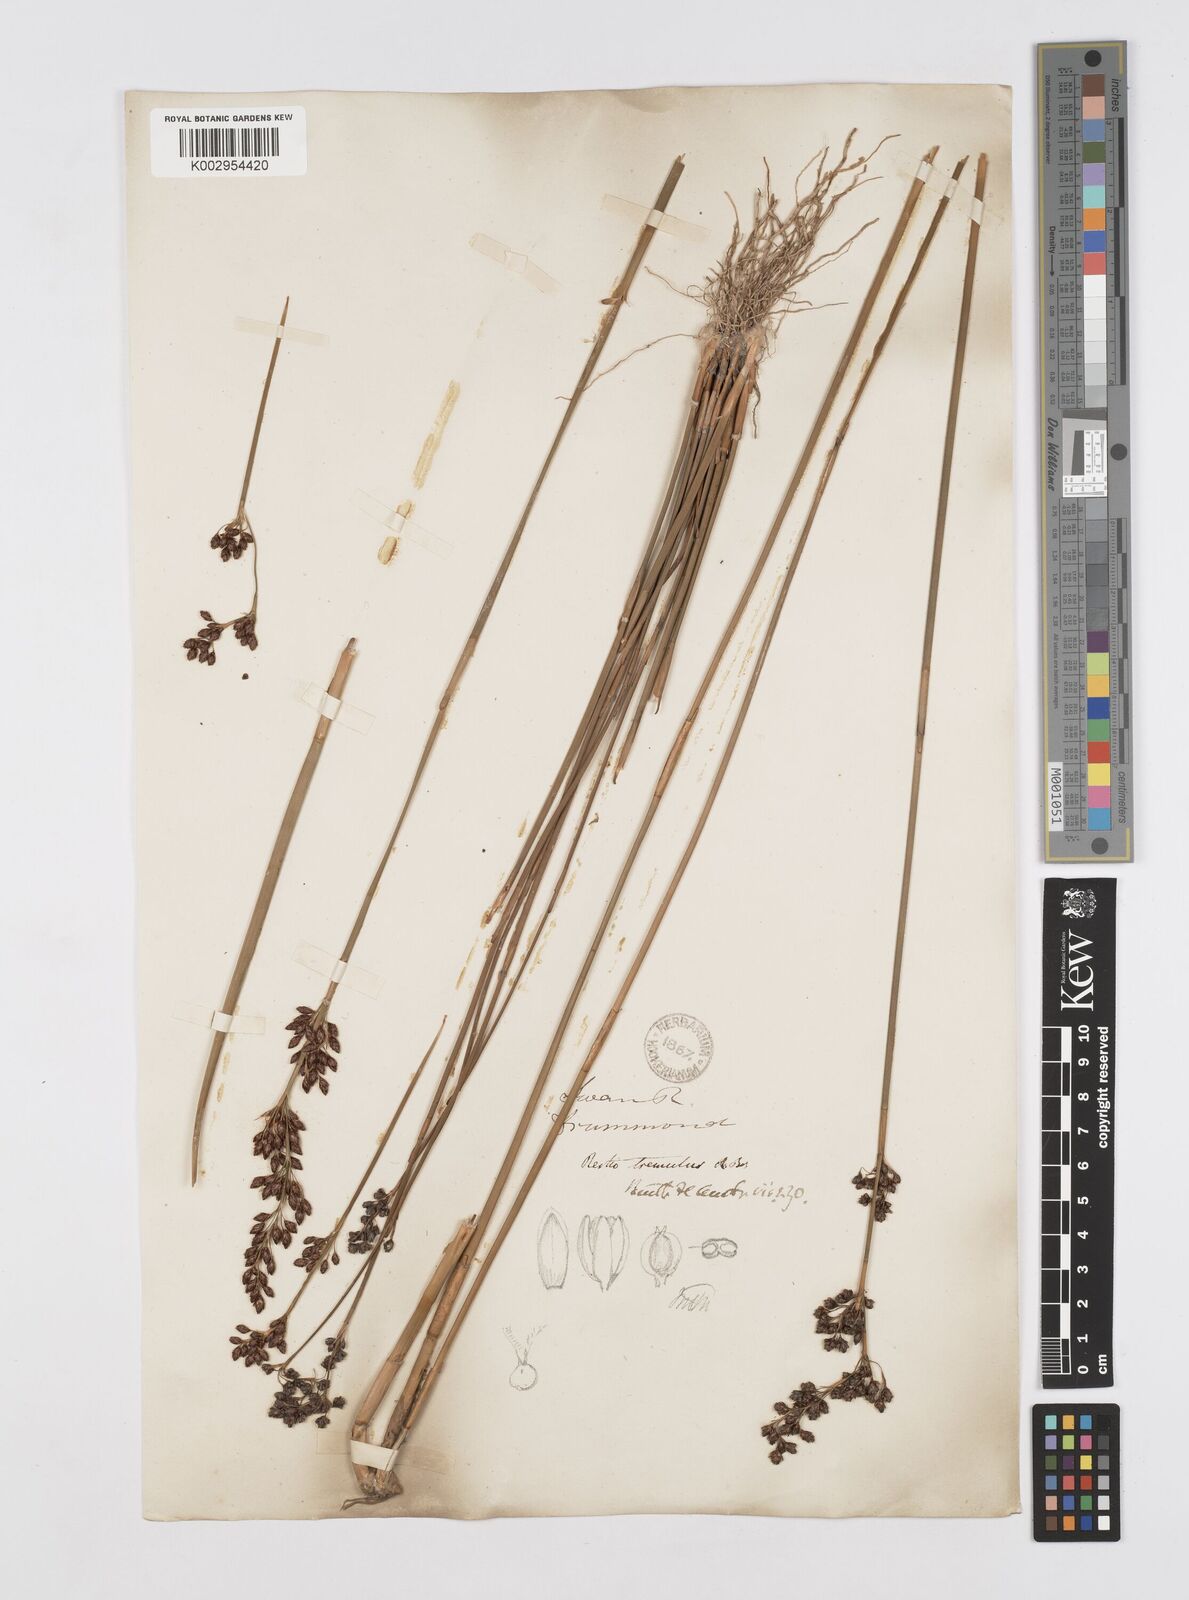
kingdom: Plantae
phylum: Tracheophyta
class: Liliopsida
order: Poales
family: Restionaceae
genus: Tremulina
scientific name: Tremulina tremula
